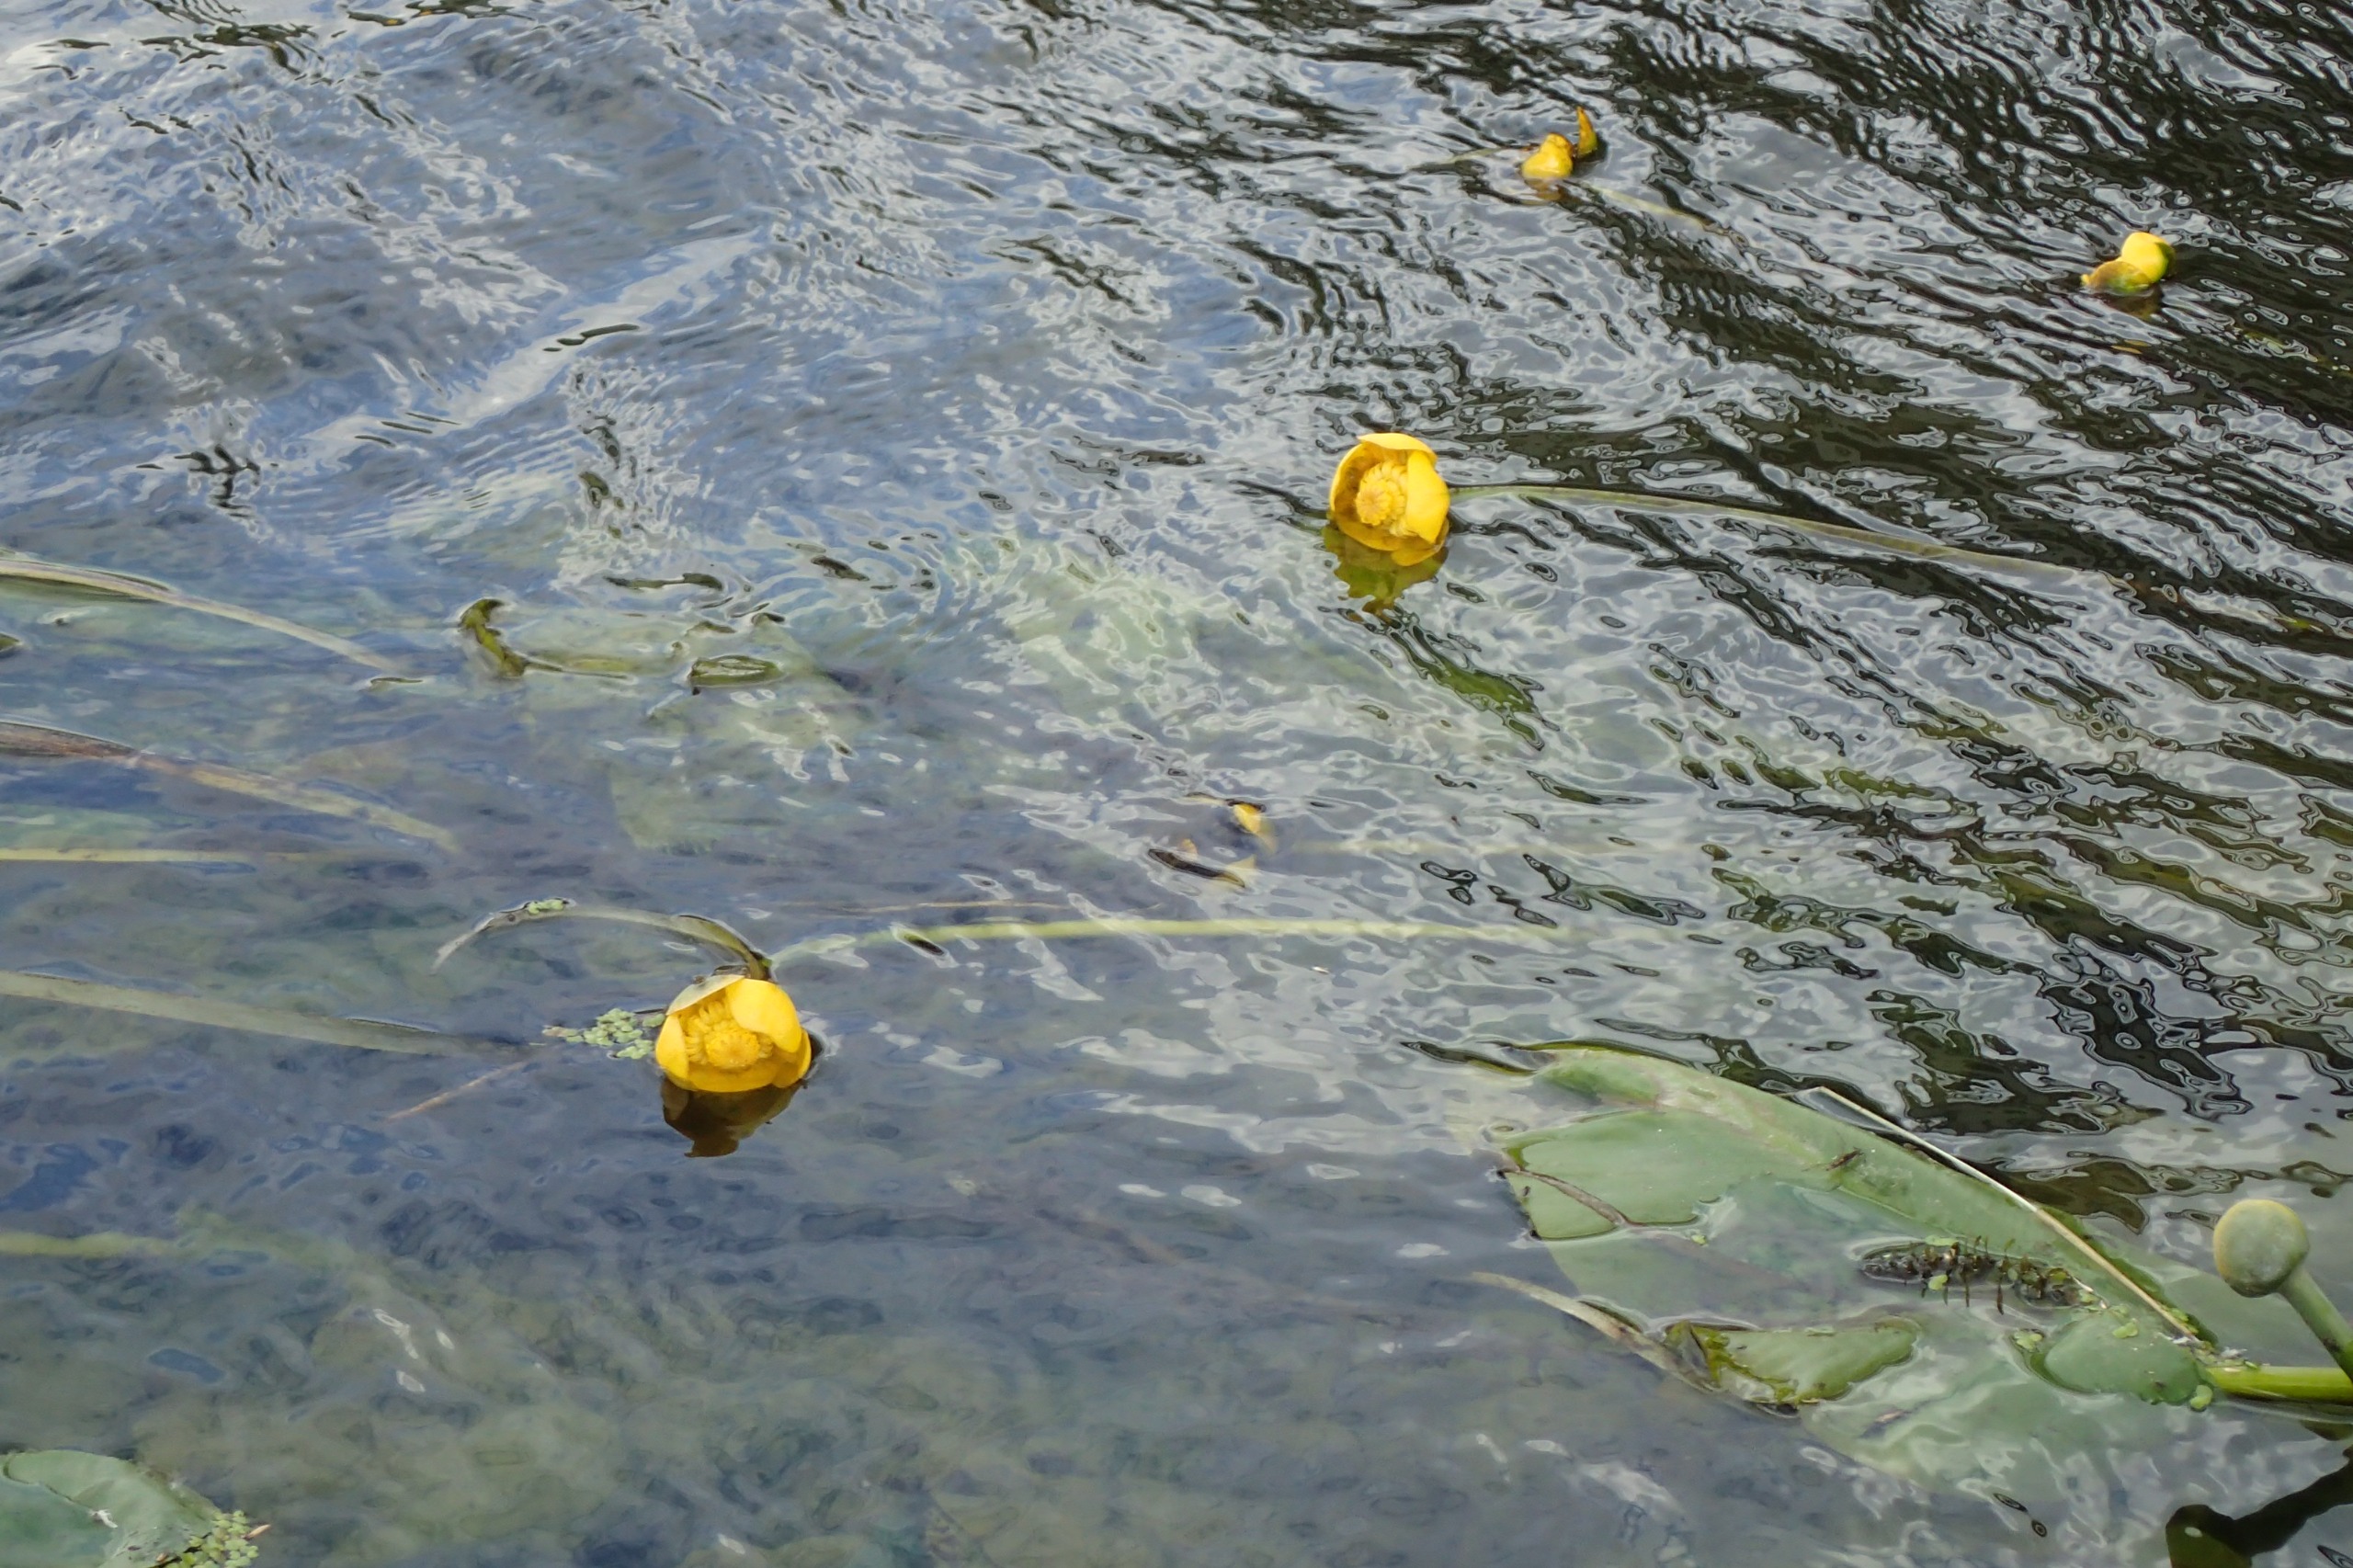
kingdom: Plantae
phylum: Tracheophyta
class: Magnoliopsida
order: Nymphaeales
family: Nymphaeaceae
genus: Nuphar
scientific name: Nuphar lutea
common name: Gul åkande
